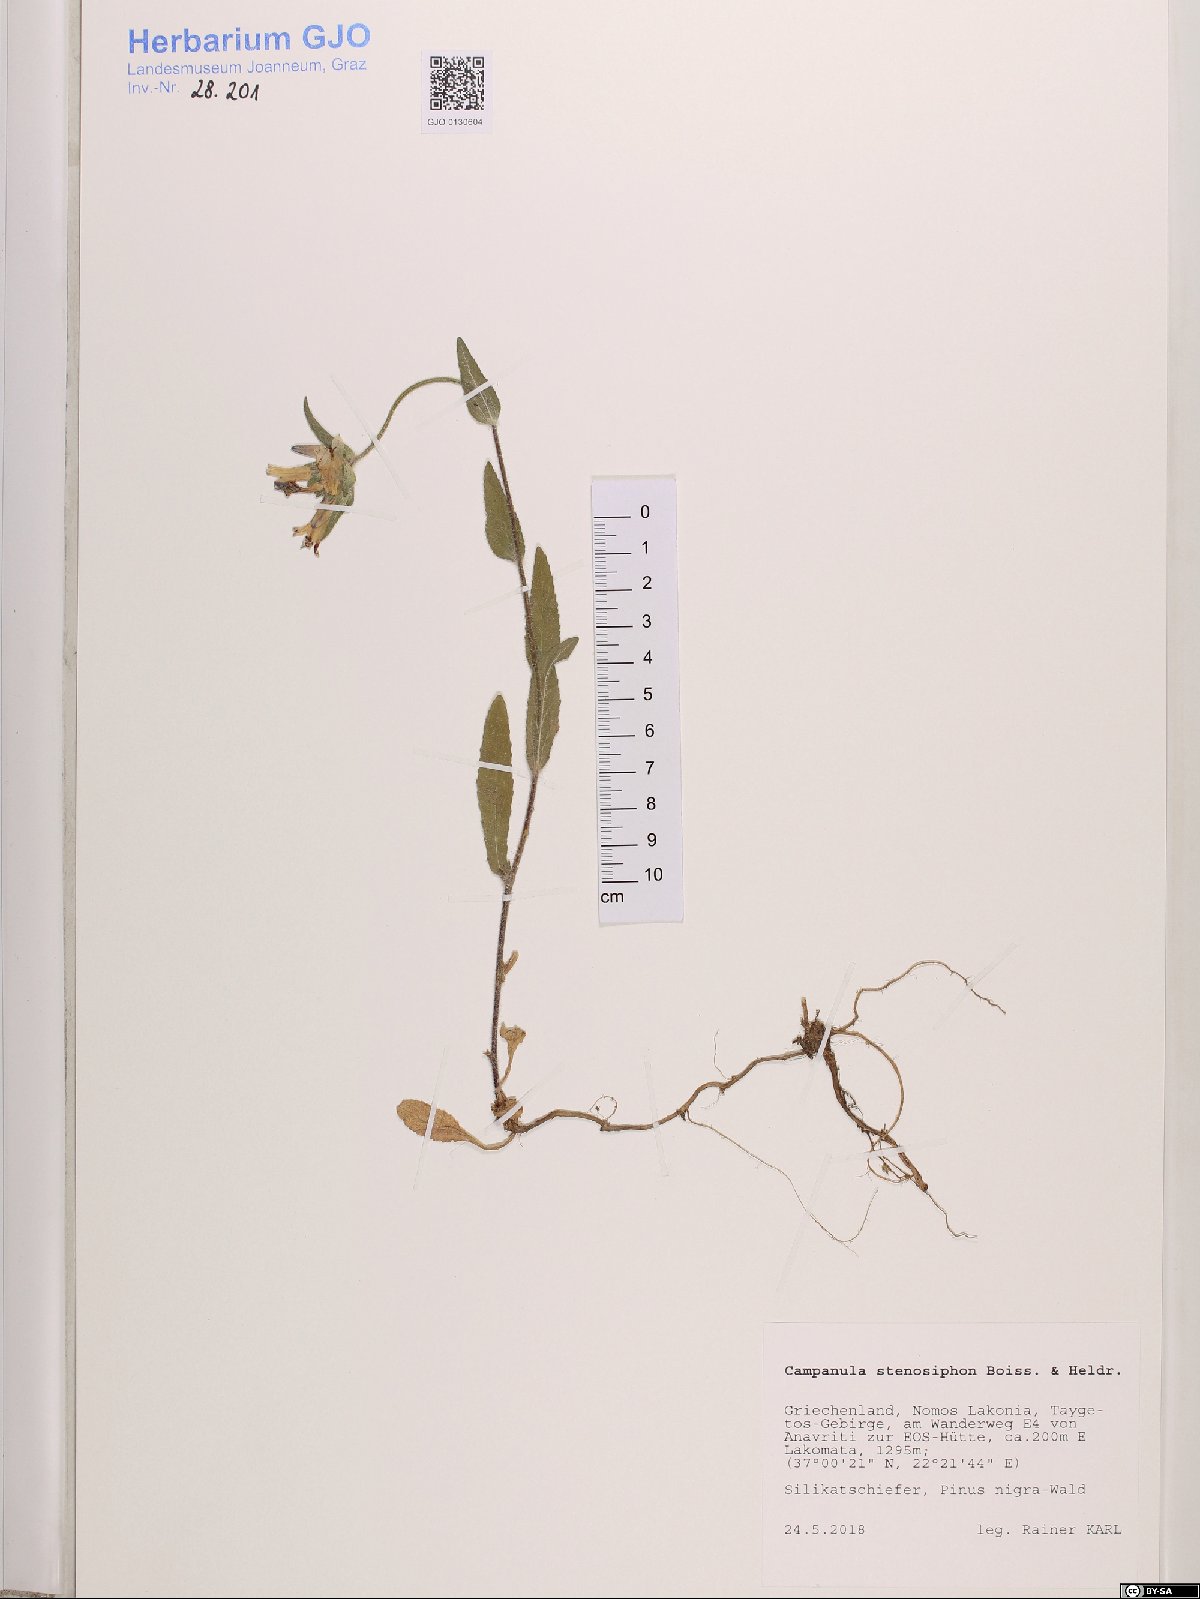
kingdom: Plantae
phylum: Tracheophyta
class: Magnoliopsida
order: Asterales
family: Campanulaceae
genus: Campanula
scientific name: Campanula stenosiphon
